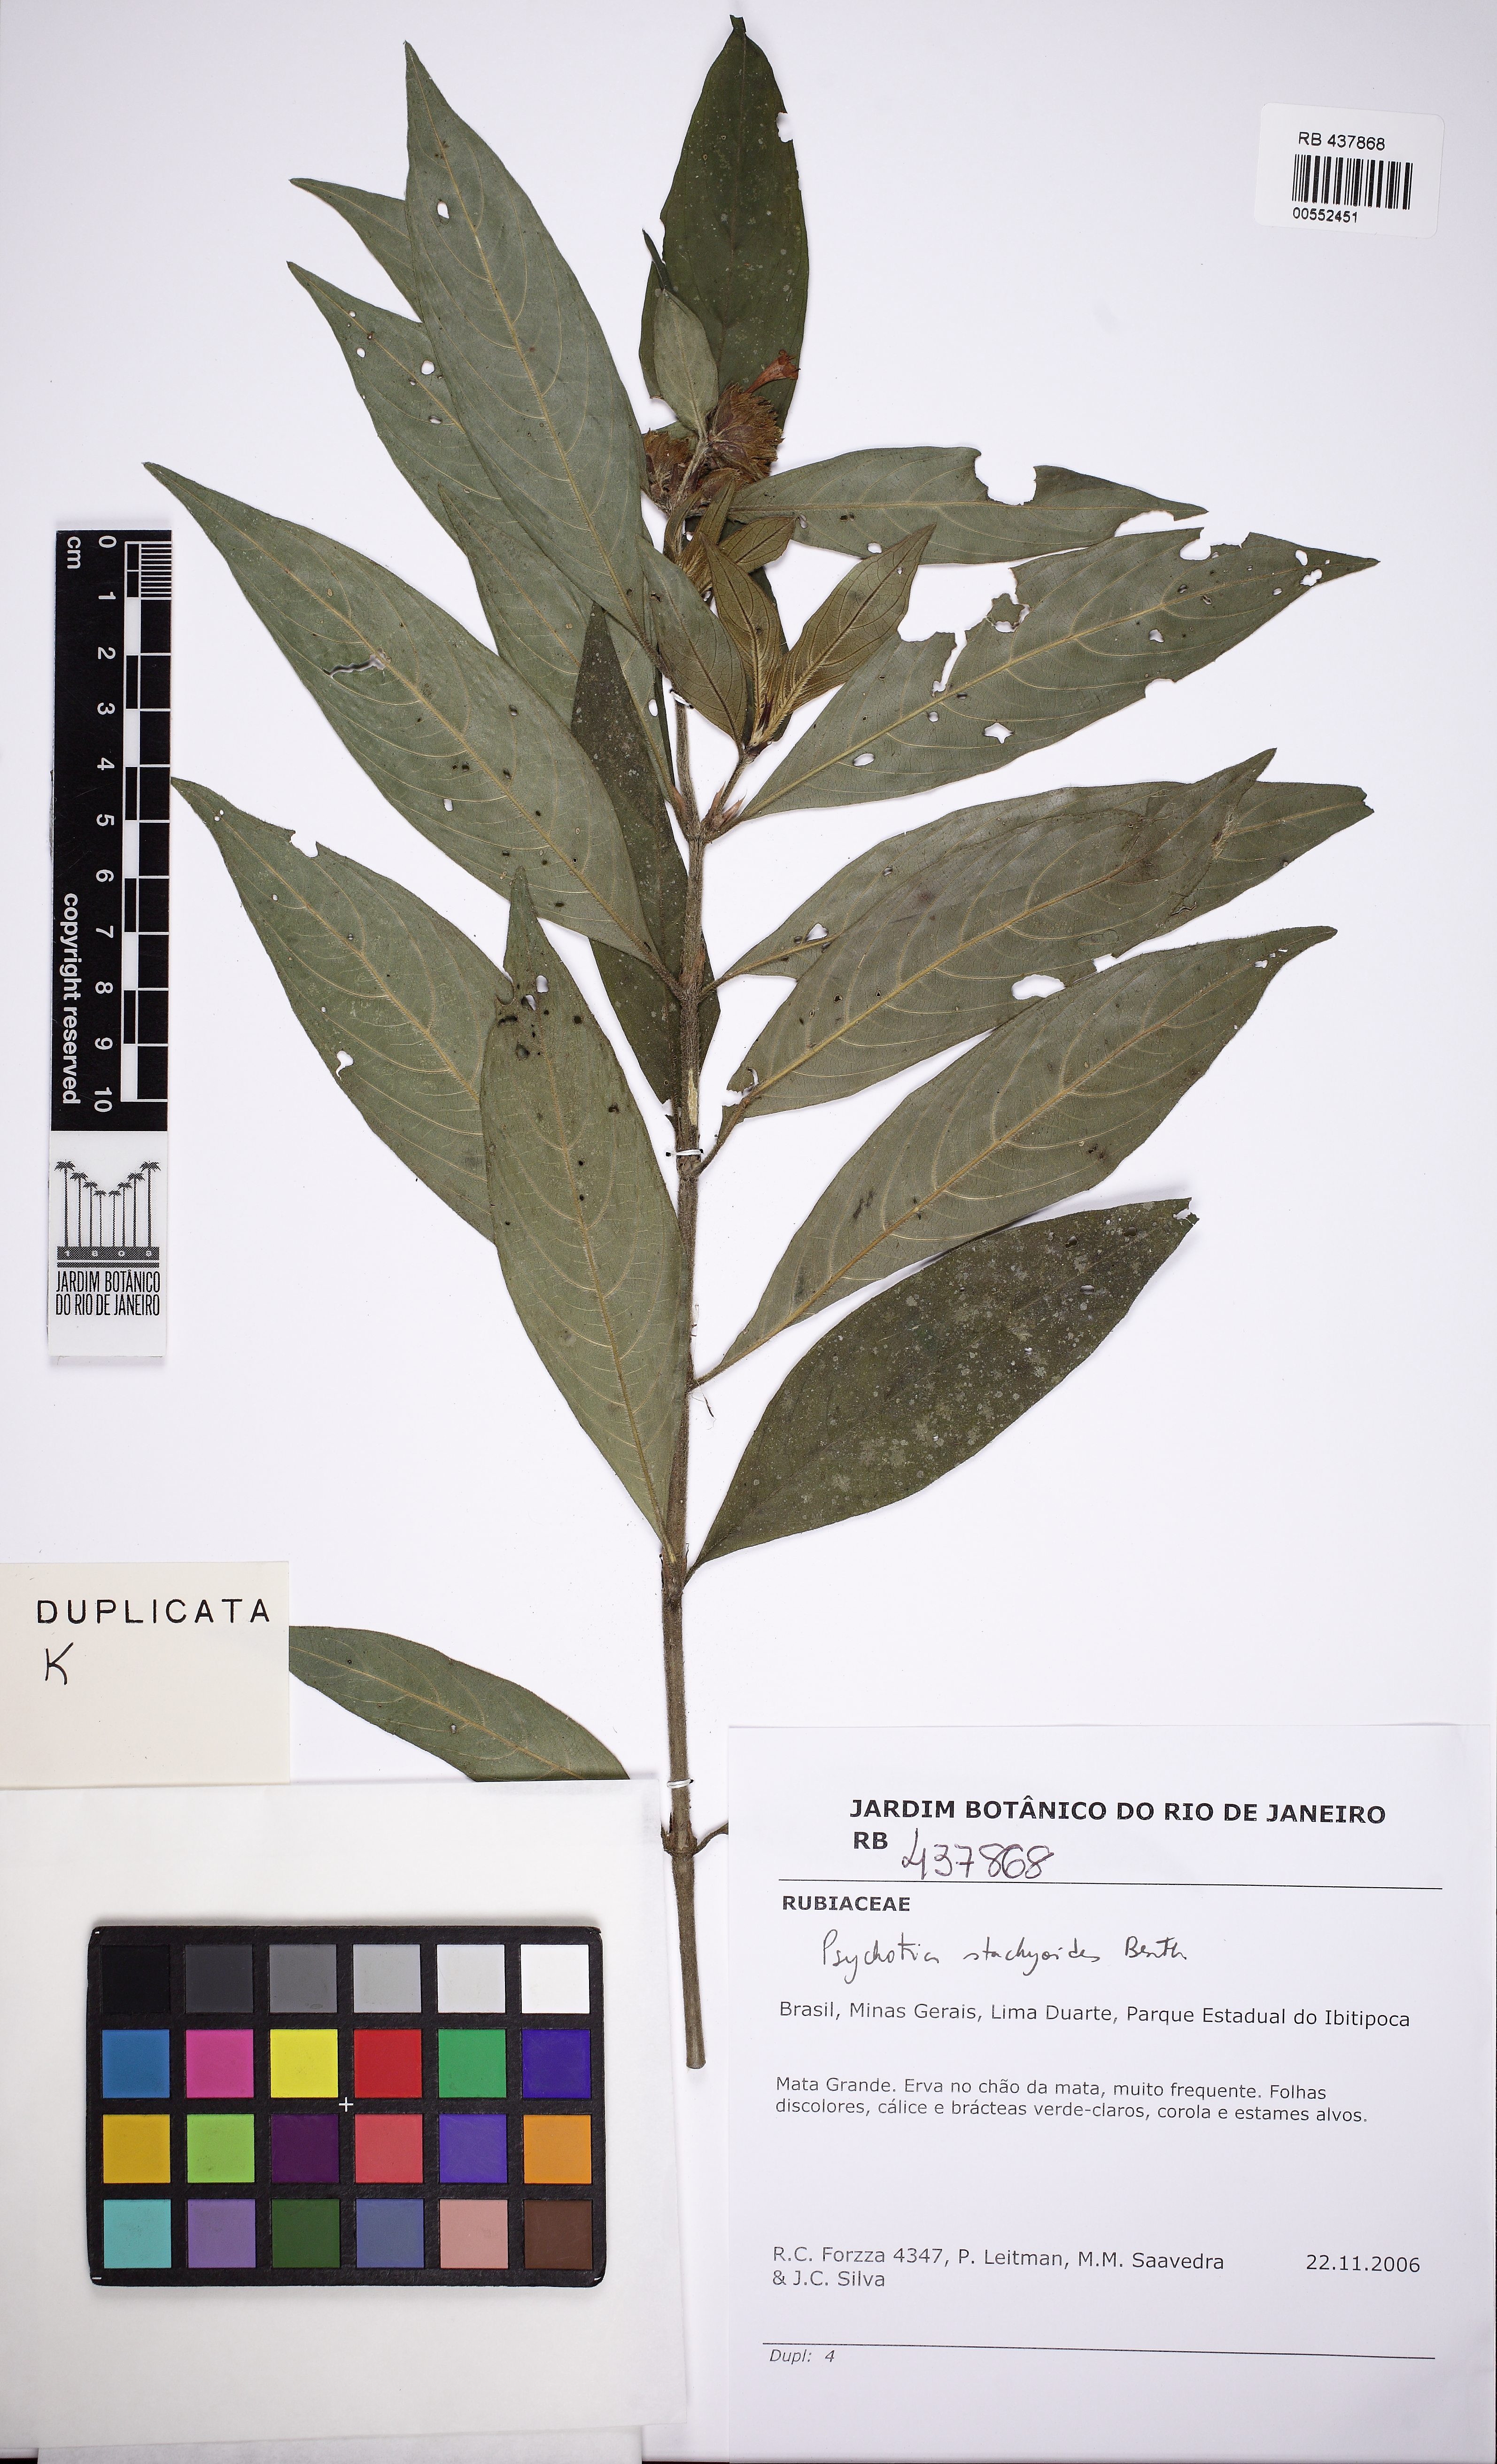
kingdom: Plantae
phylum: Tracheophyta
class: Magnoliopsida
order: Gentianales
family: Rubiaceae
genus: Psychotria
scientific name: Psychotria stachyoides
